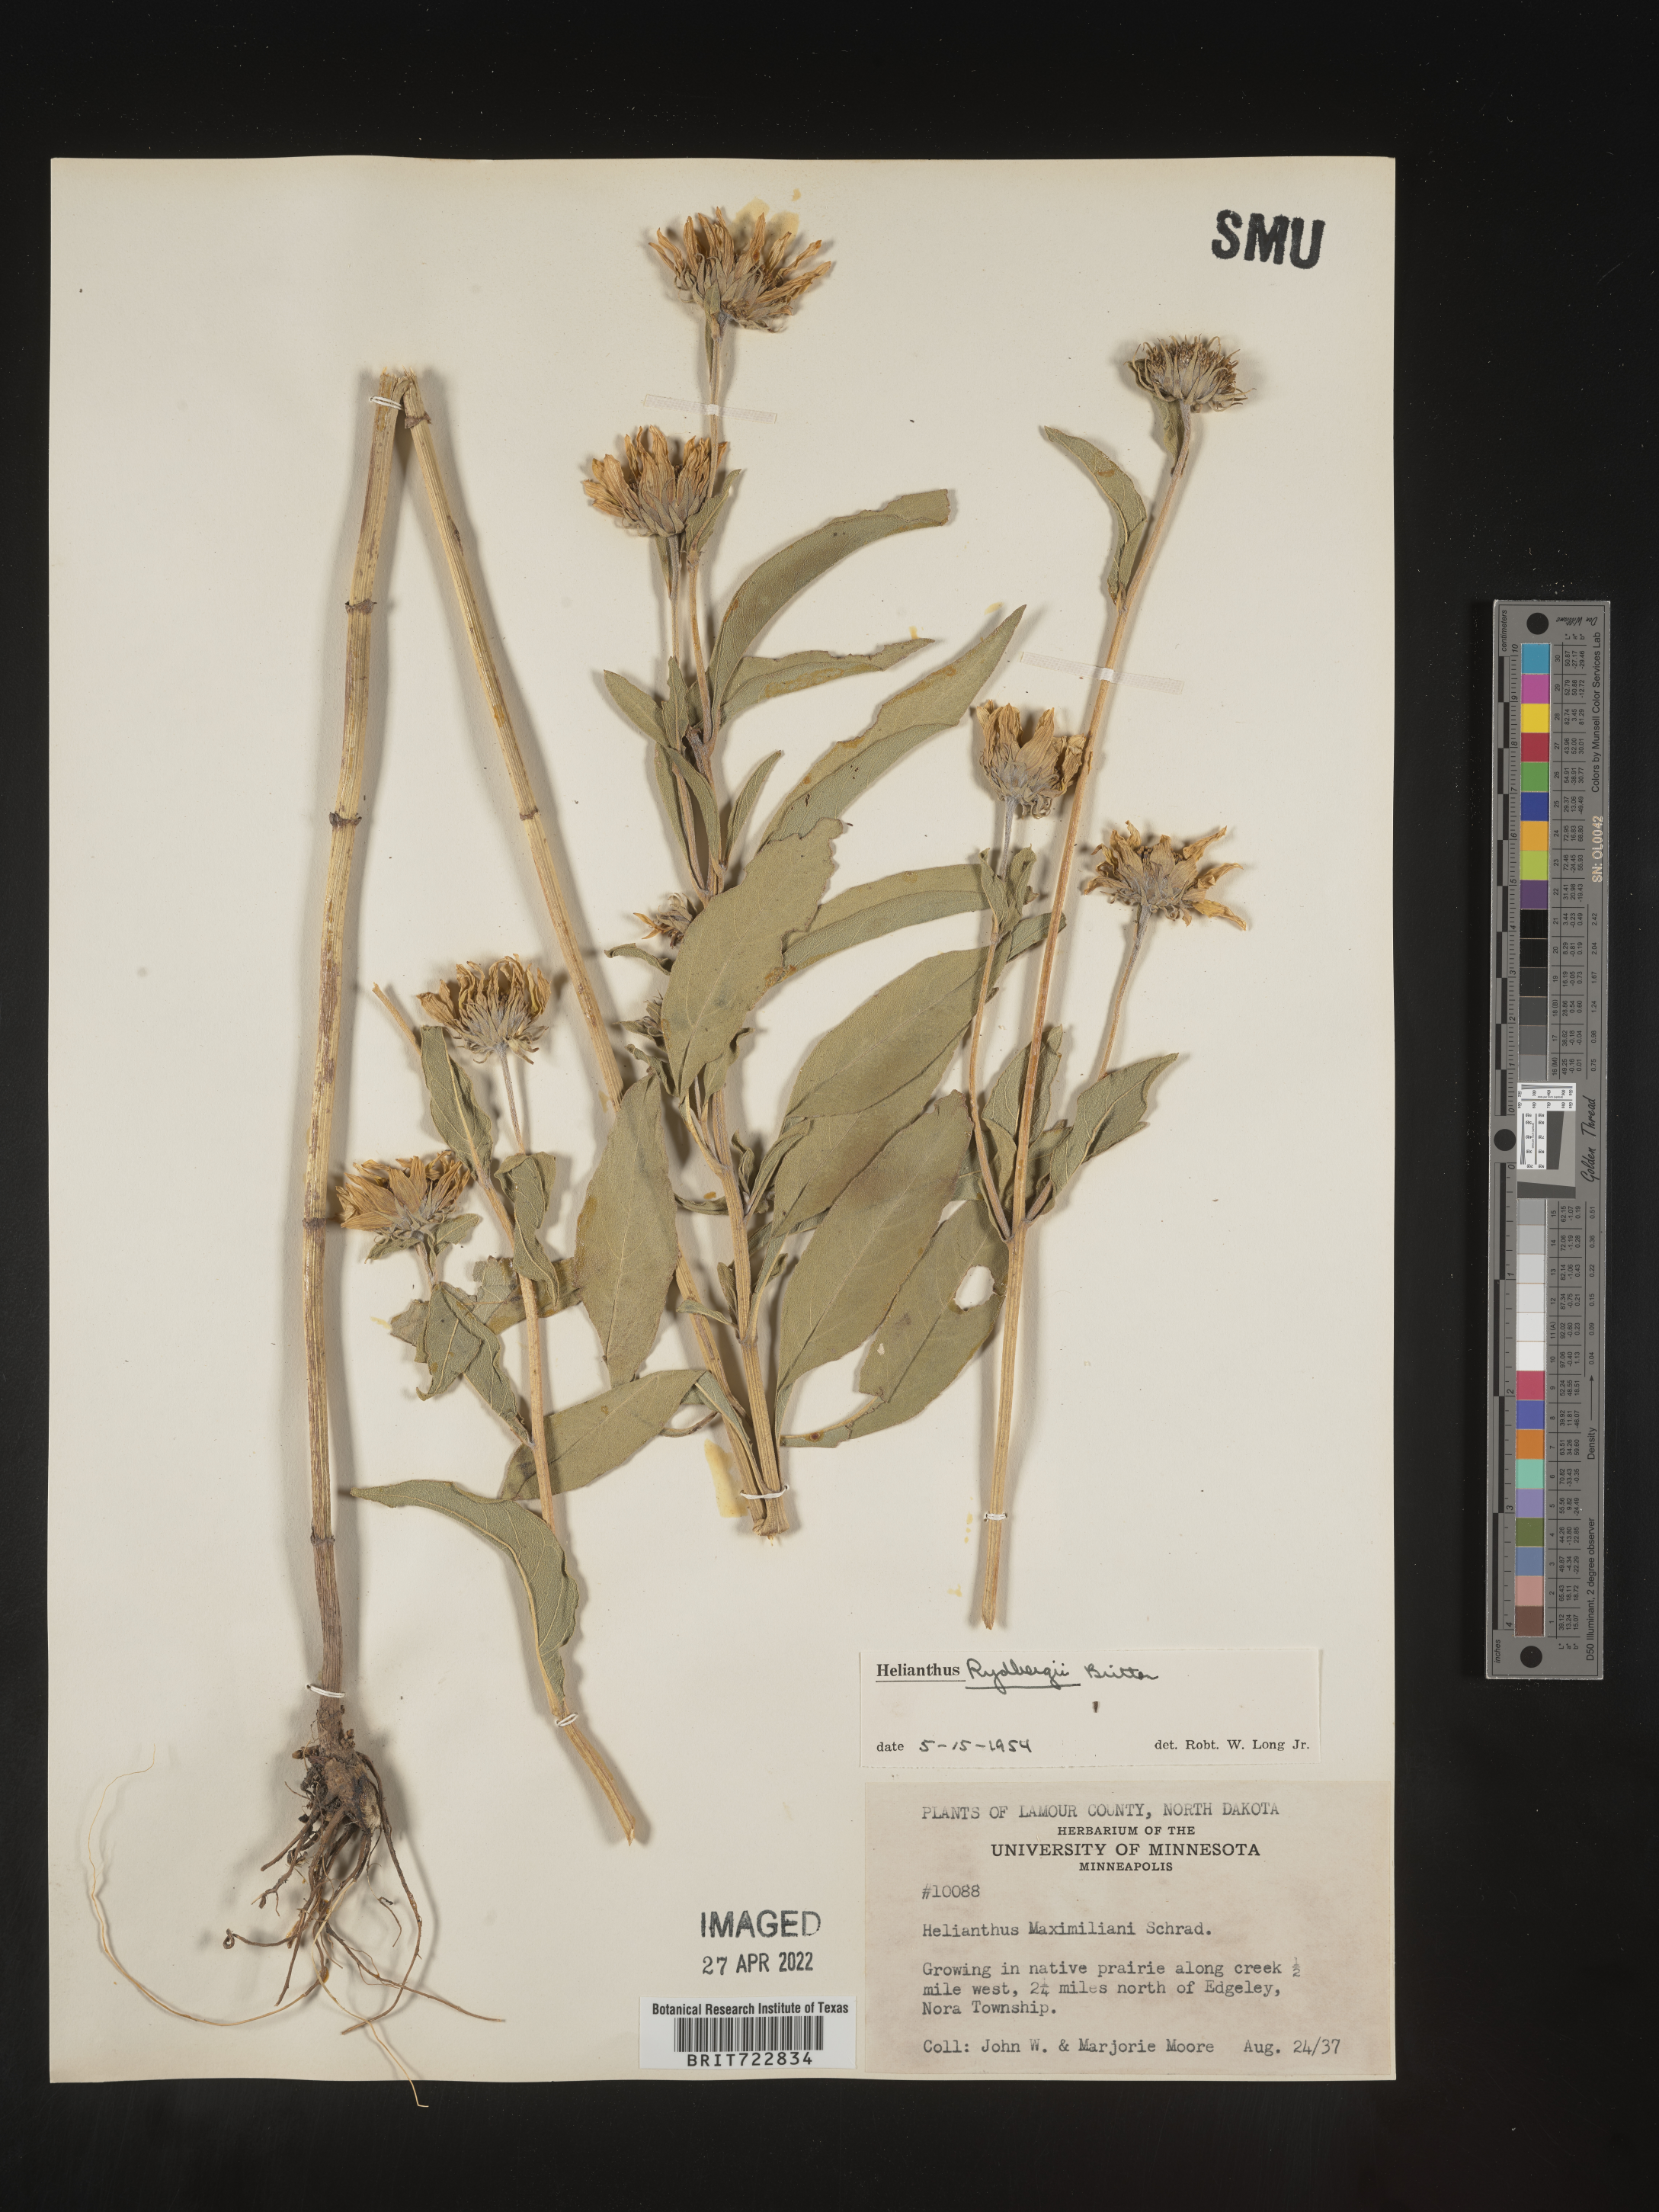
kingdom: Plantae
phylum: Tracheophyta
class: Magnoliopsida
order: Asterales
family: Asteraceae
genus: Helianthus
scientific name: Helianthus nuttallii
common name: Nuttall's sunflower
